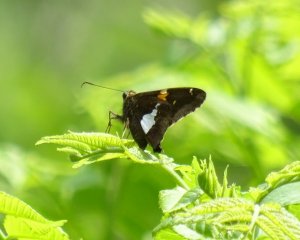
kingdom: Animalia
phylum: Arthropoda
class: Insecta
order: Lepidoptera
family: Hesperiidae
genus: Epargyreus
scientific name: Epargyreus clarus
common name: Silver-spotted Skipper
